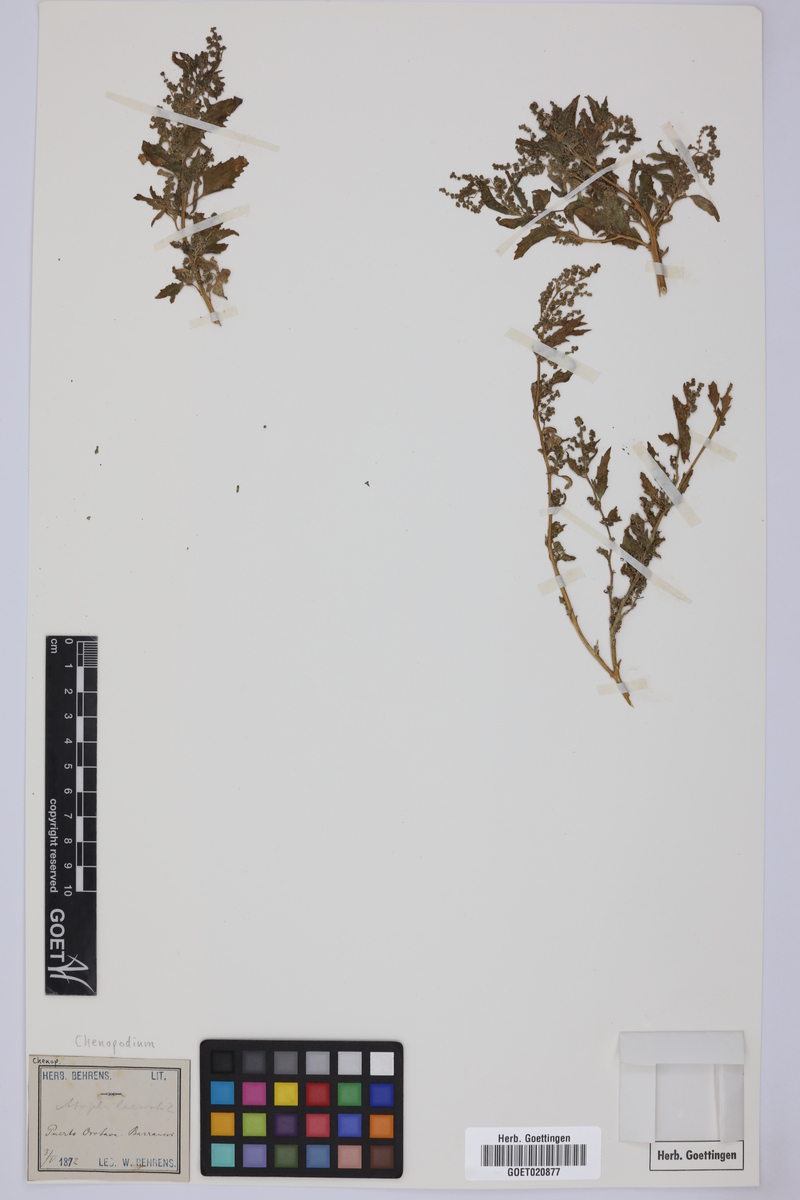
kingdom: Plantae
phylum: Tracheophyta
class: Magnoliopsida
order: Caryophyllales
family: Amaranthaceae
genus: Chenopodium
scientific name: Chenopodium
